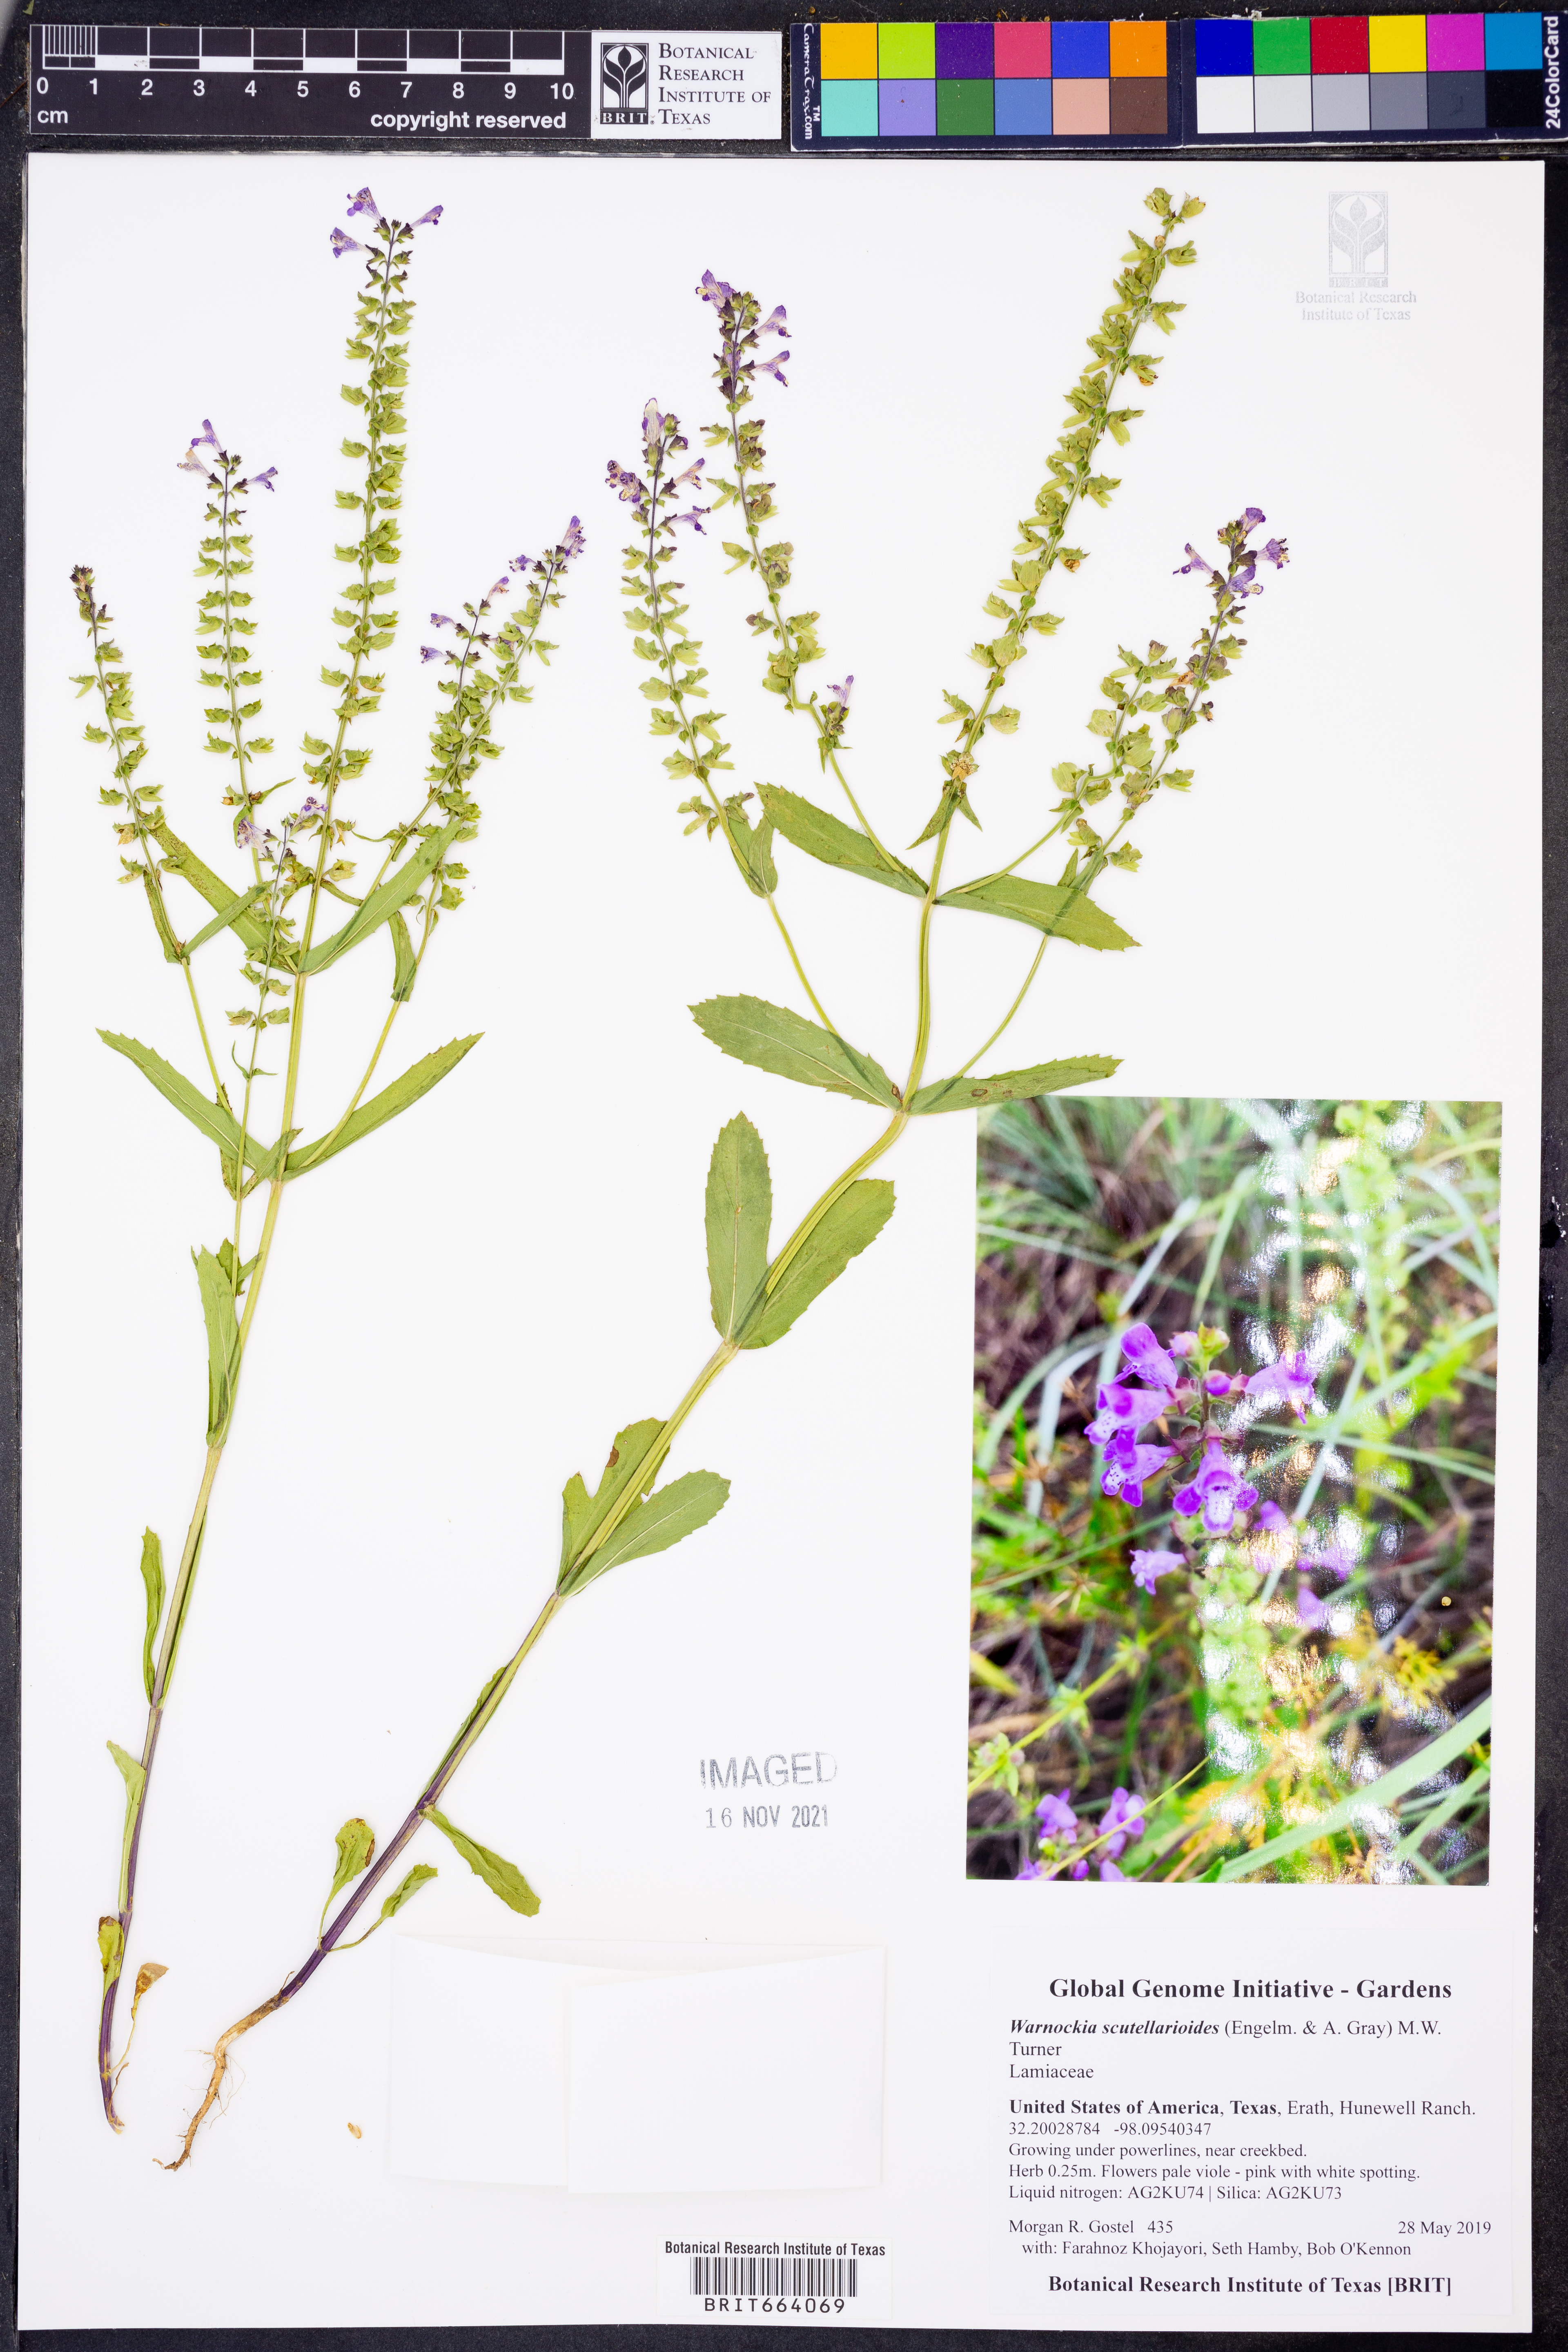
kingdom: Plantae
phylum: Tracheophyta
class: Magnoliopsida
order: Lamiales
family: Lamiaceae
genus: Warnockia
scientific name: Warnockia scutellarioides
